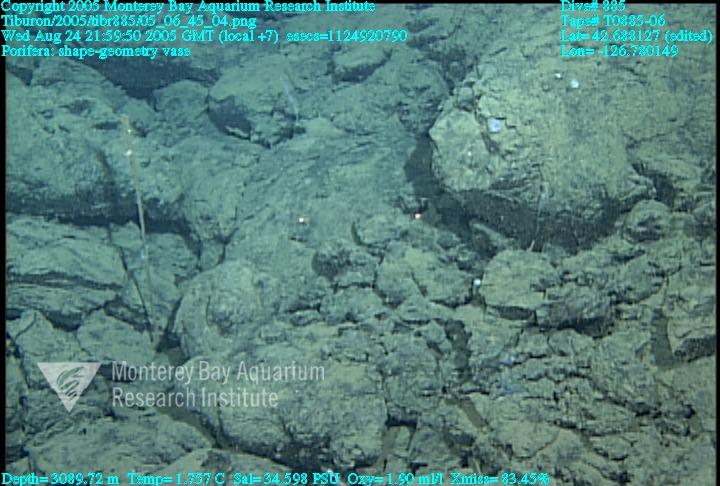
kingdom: Animalia
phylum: Porifera
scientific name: Porifera
